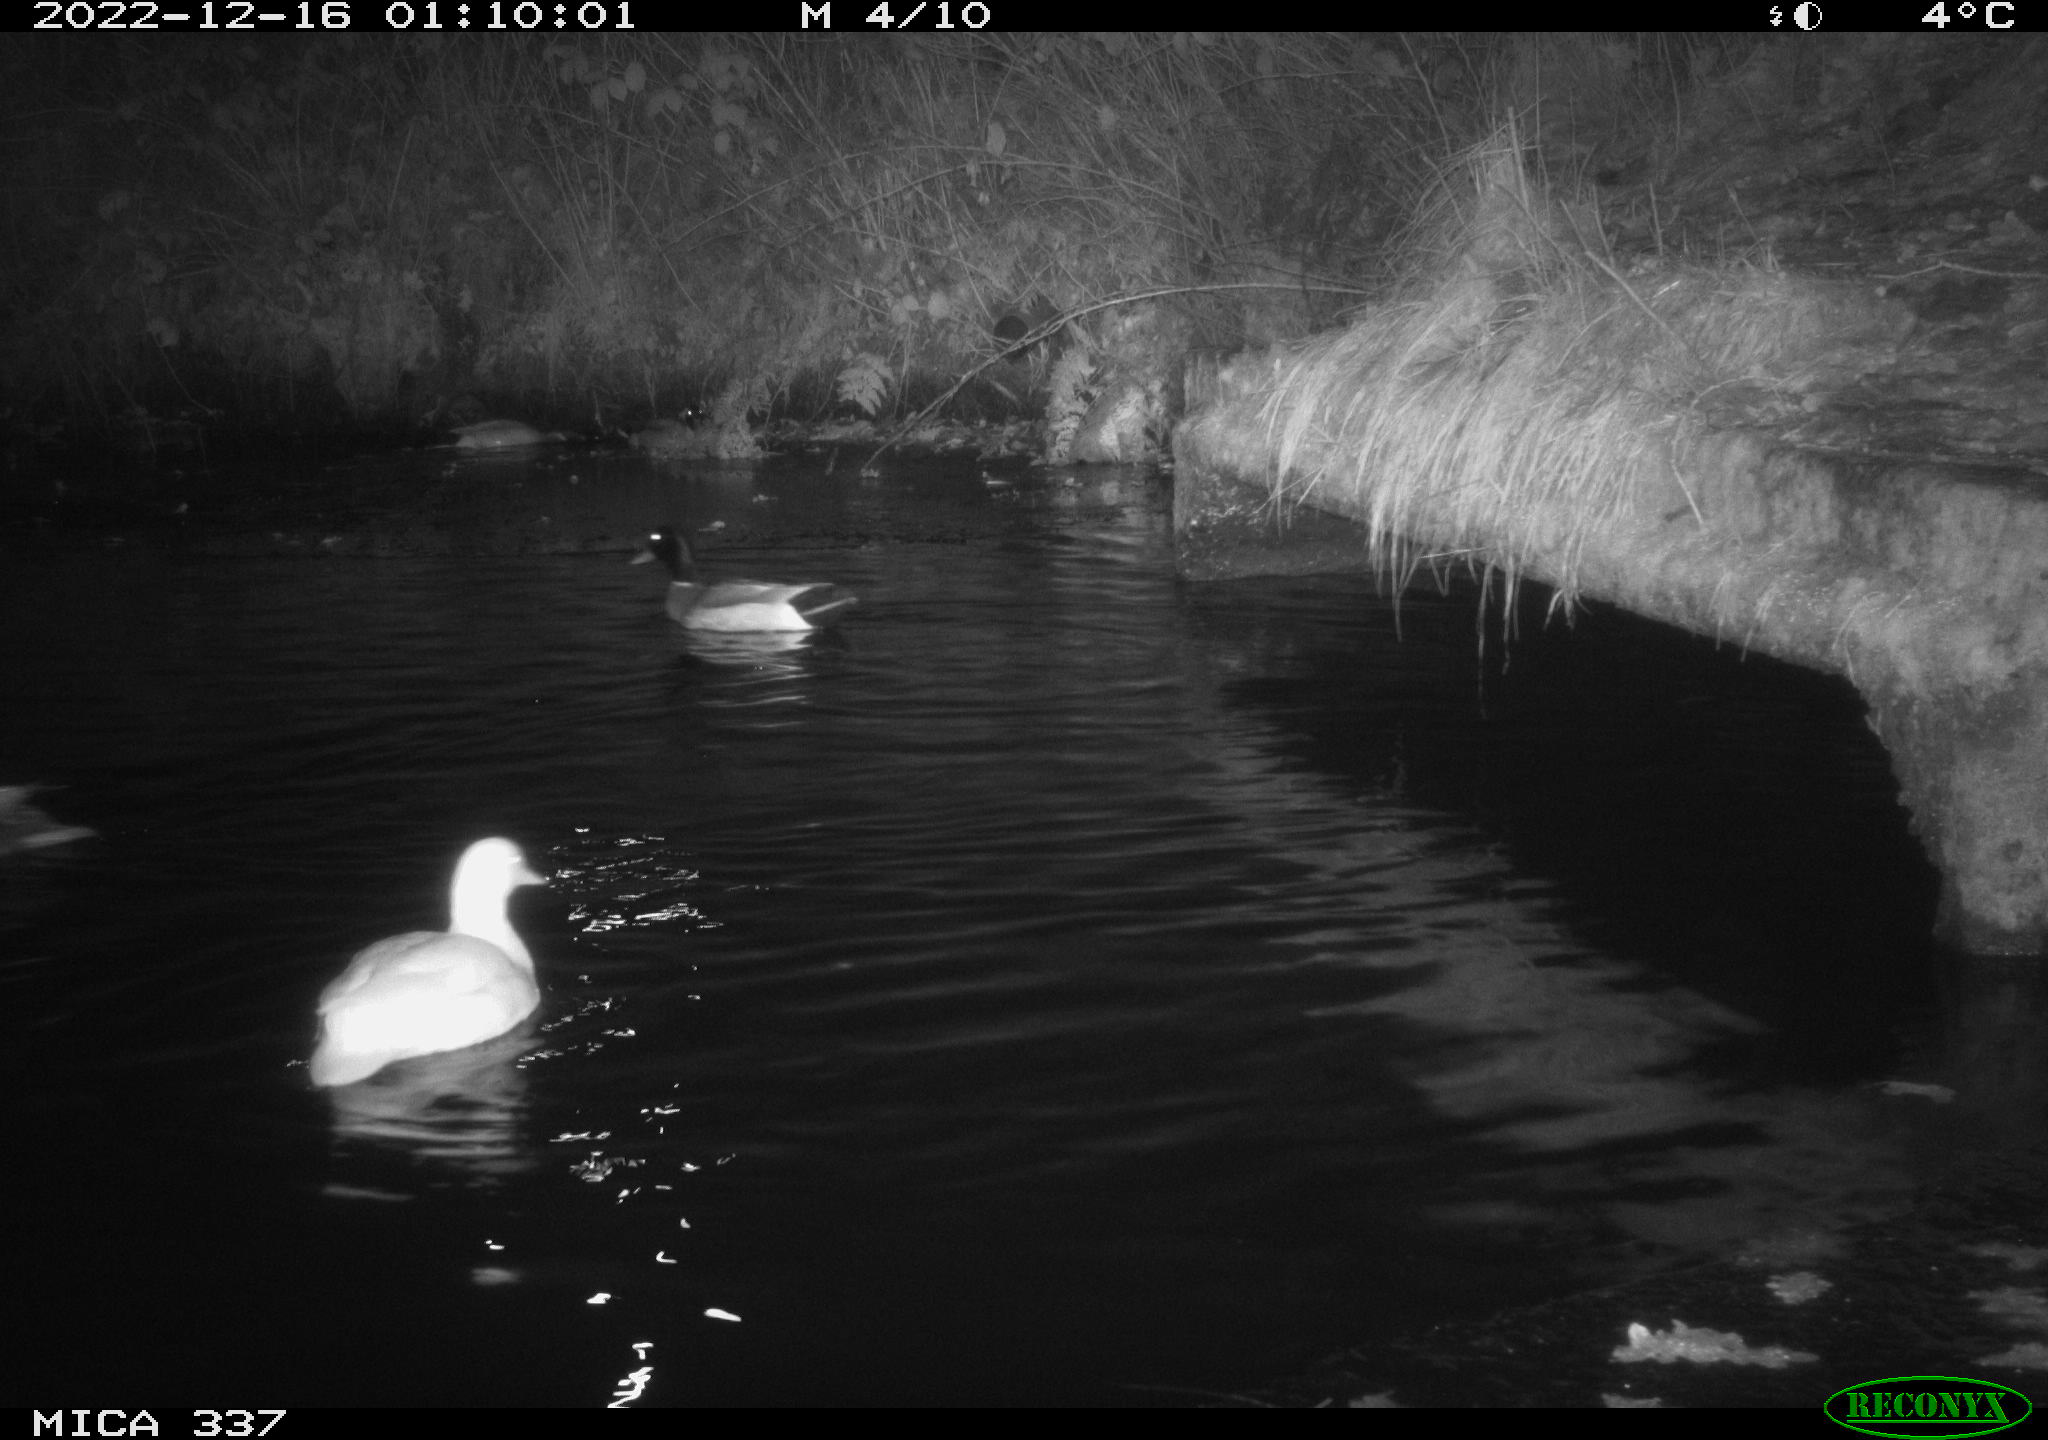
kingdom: Animalia
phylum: Chordata
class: Aves
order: Anseriformes
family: Anatidae
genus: Anas
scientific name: Anas
